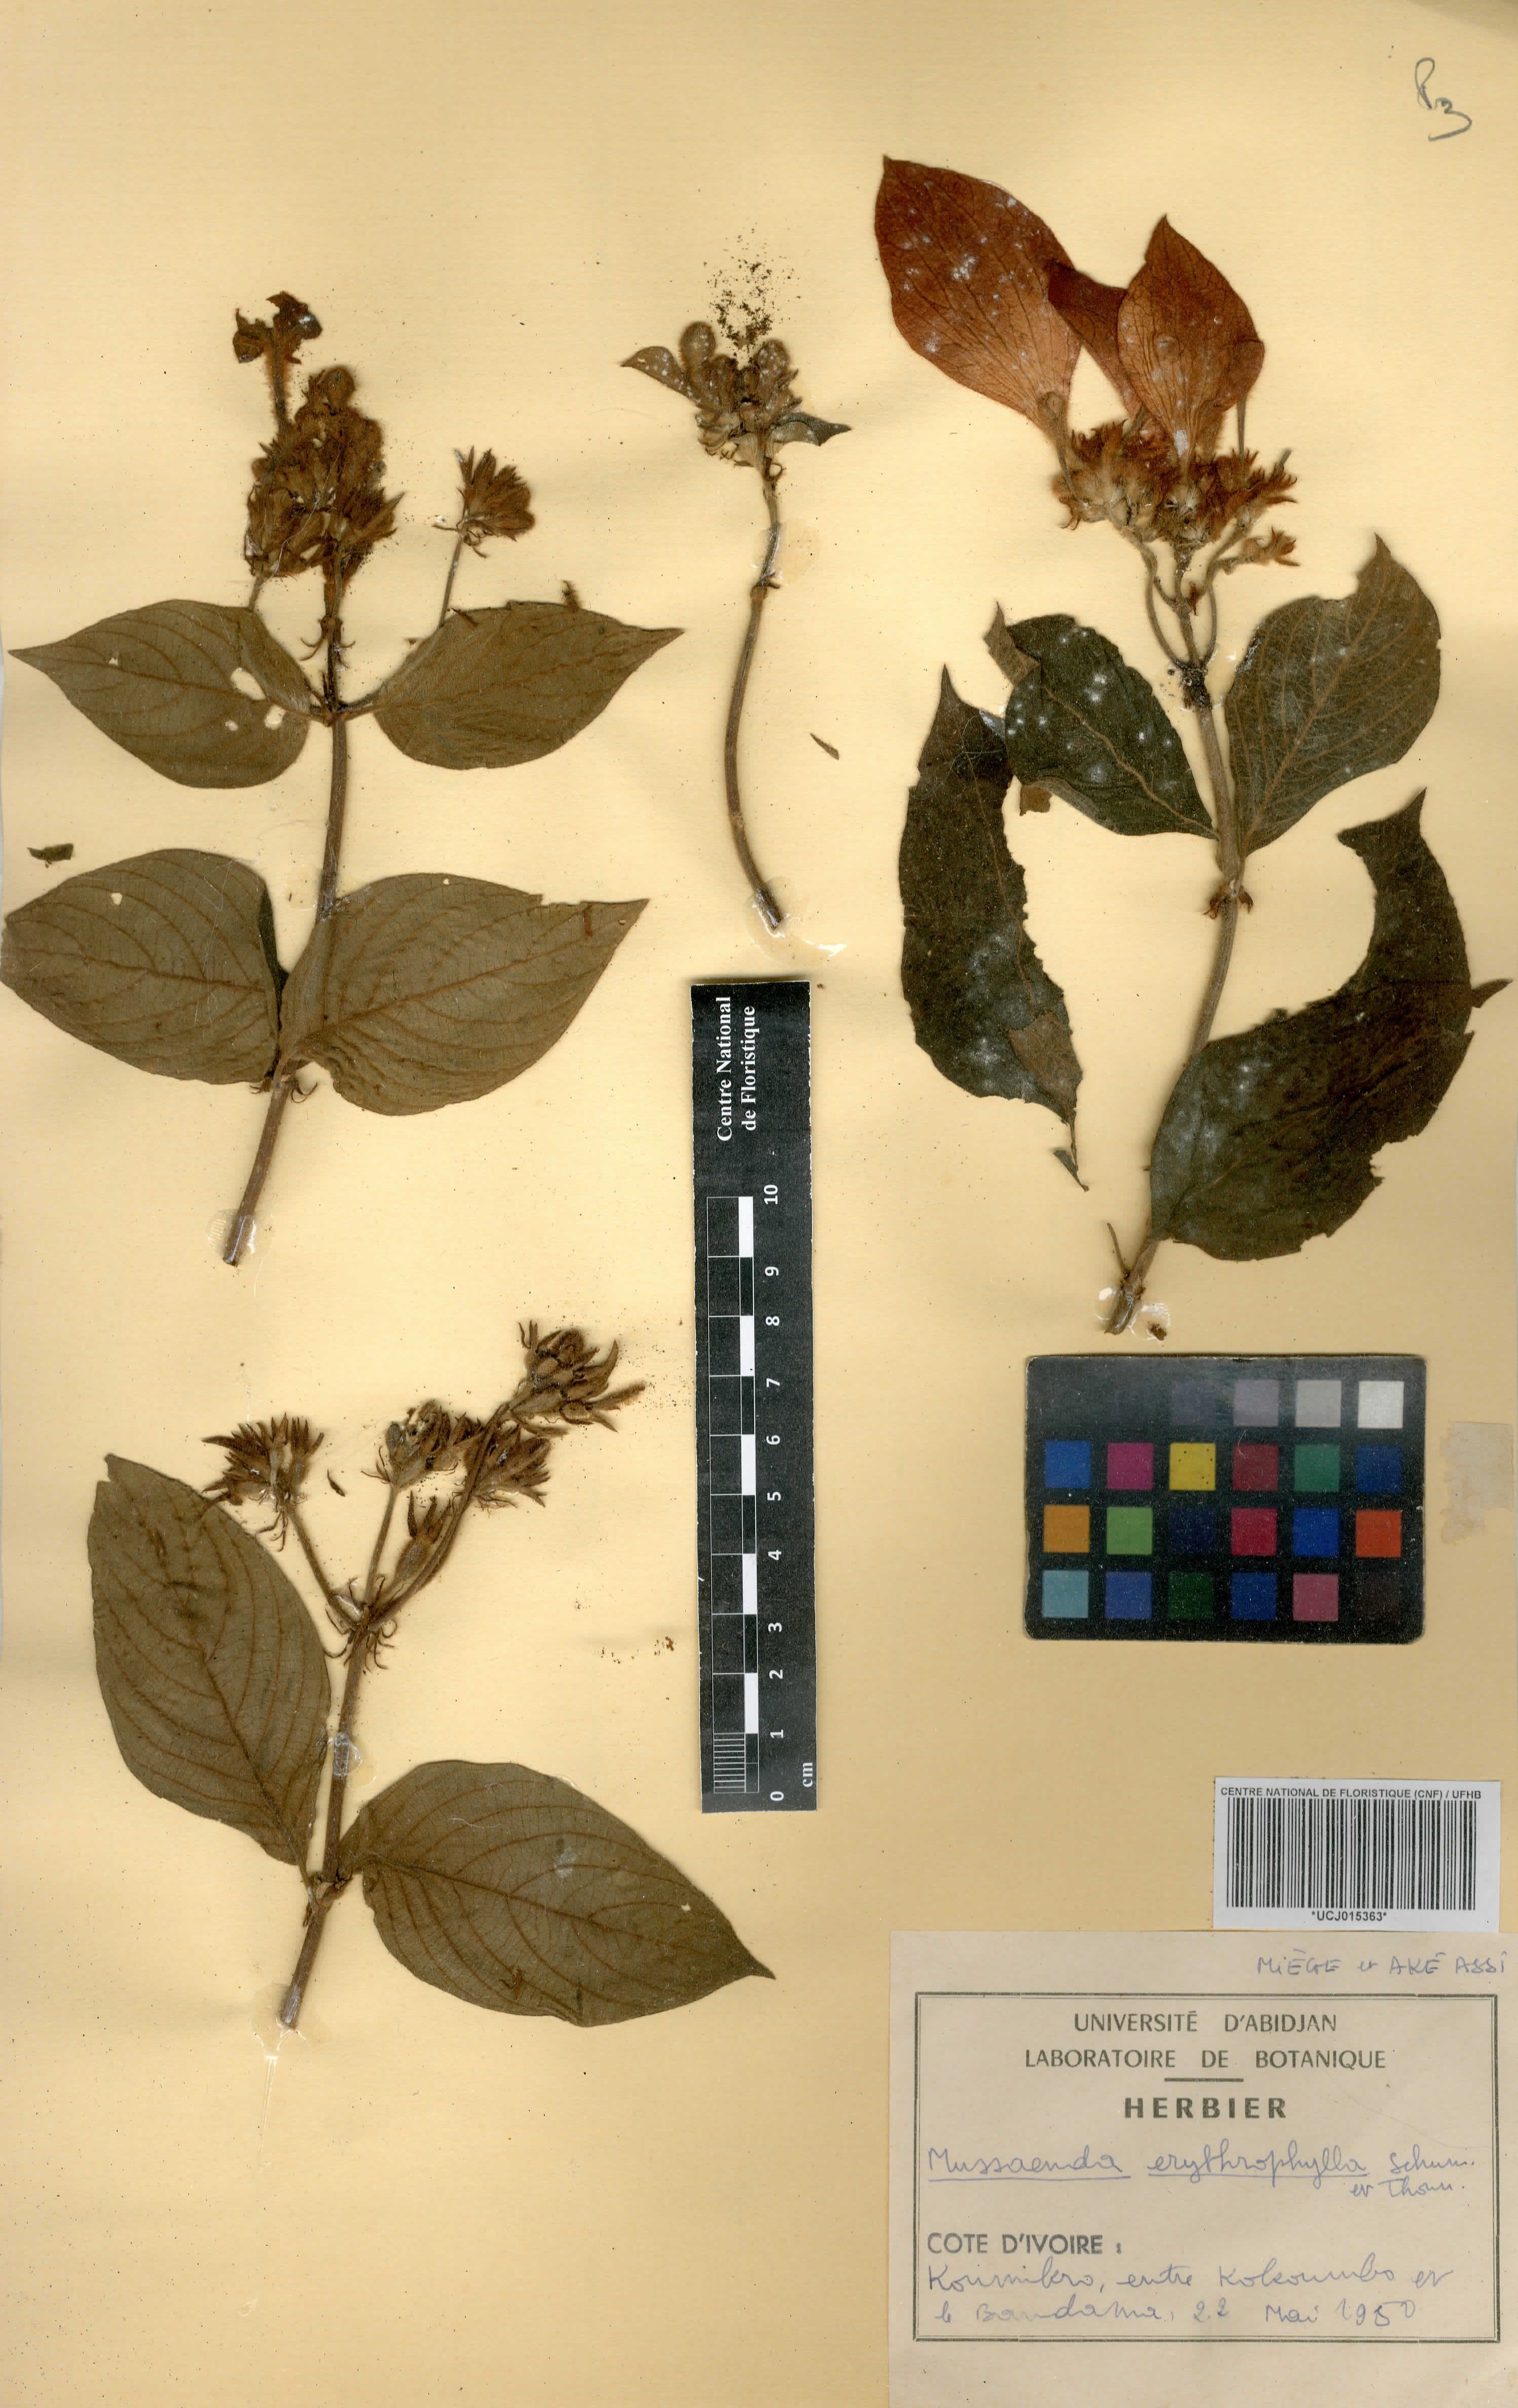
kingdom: Plantae
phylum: Tracheophyta
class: Magnoliopsida
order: Gentianales
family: Rubiaceae
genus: Mussaenda
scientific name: Mussaenda erythrophylla
